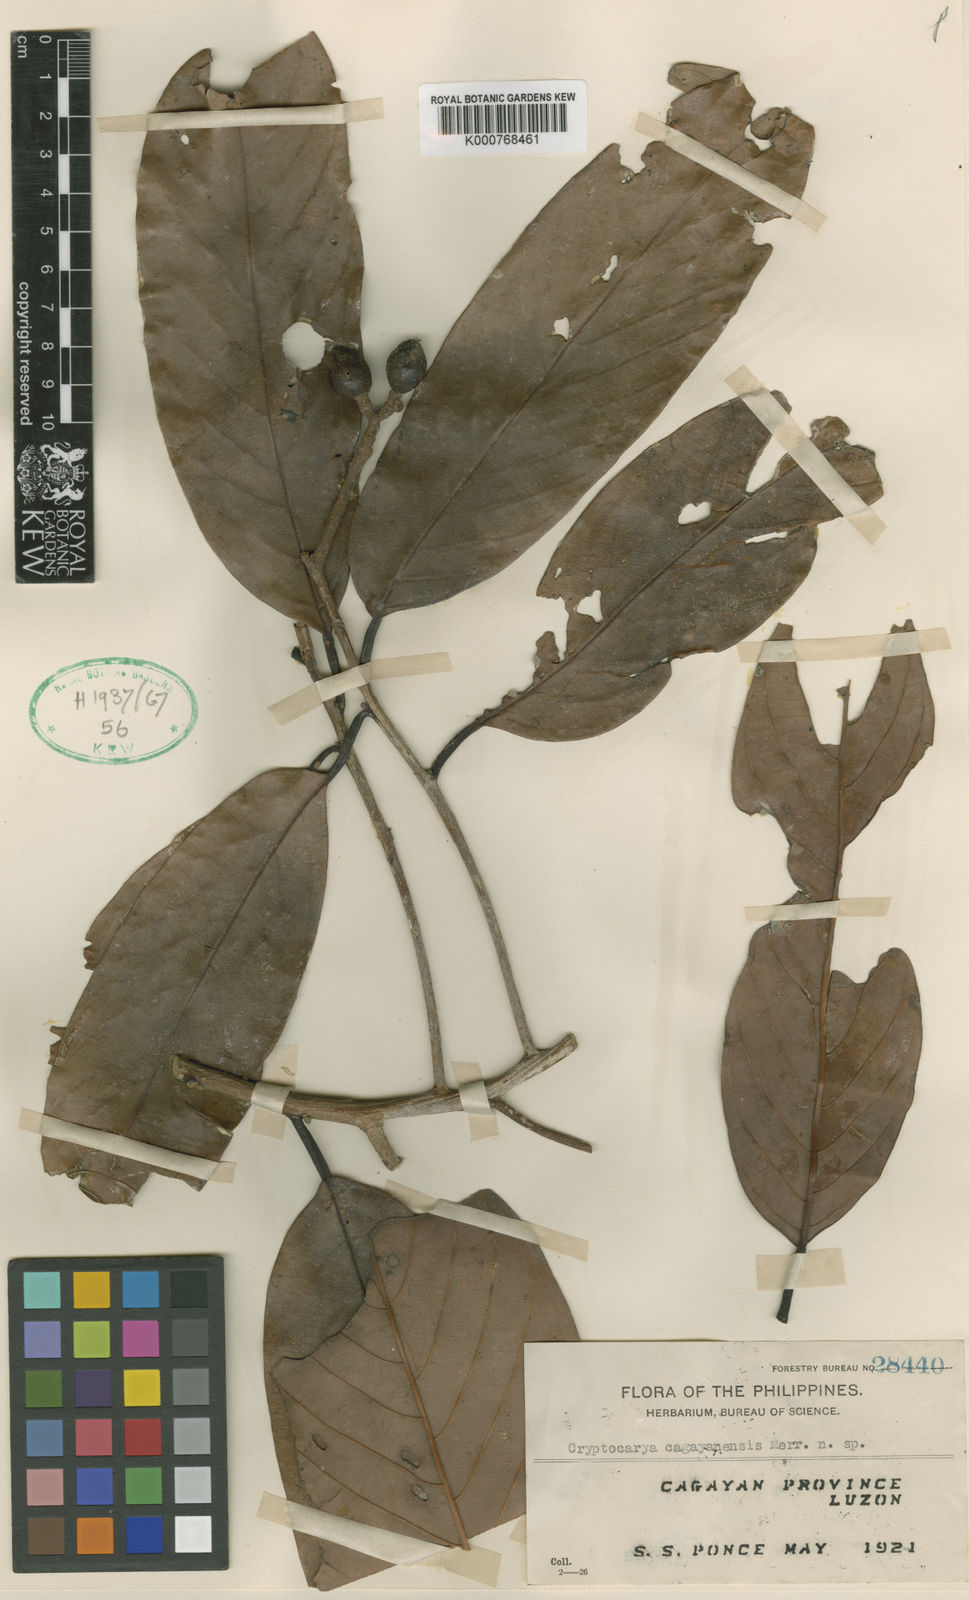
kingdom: Plantae
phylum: Tracheophyta
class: Magnoliopsida
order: Laurales
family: Lauraceae
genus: Cryptocarya
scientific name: Cryptocarya cagayanensis
